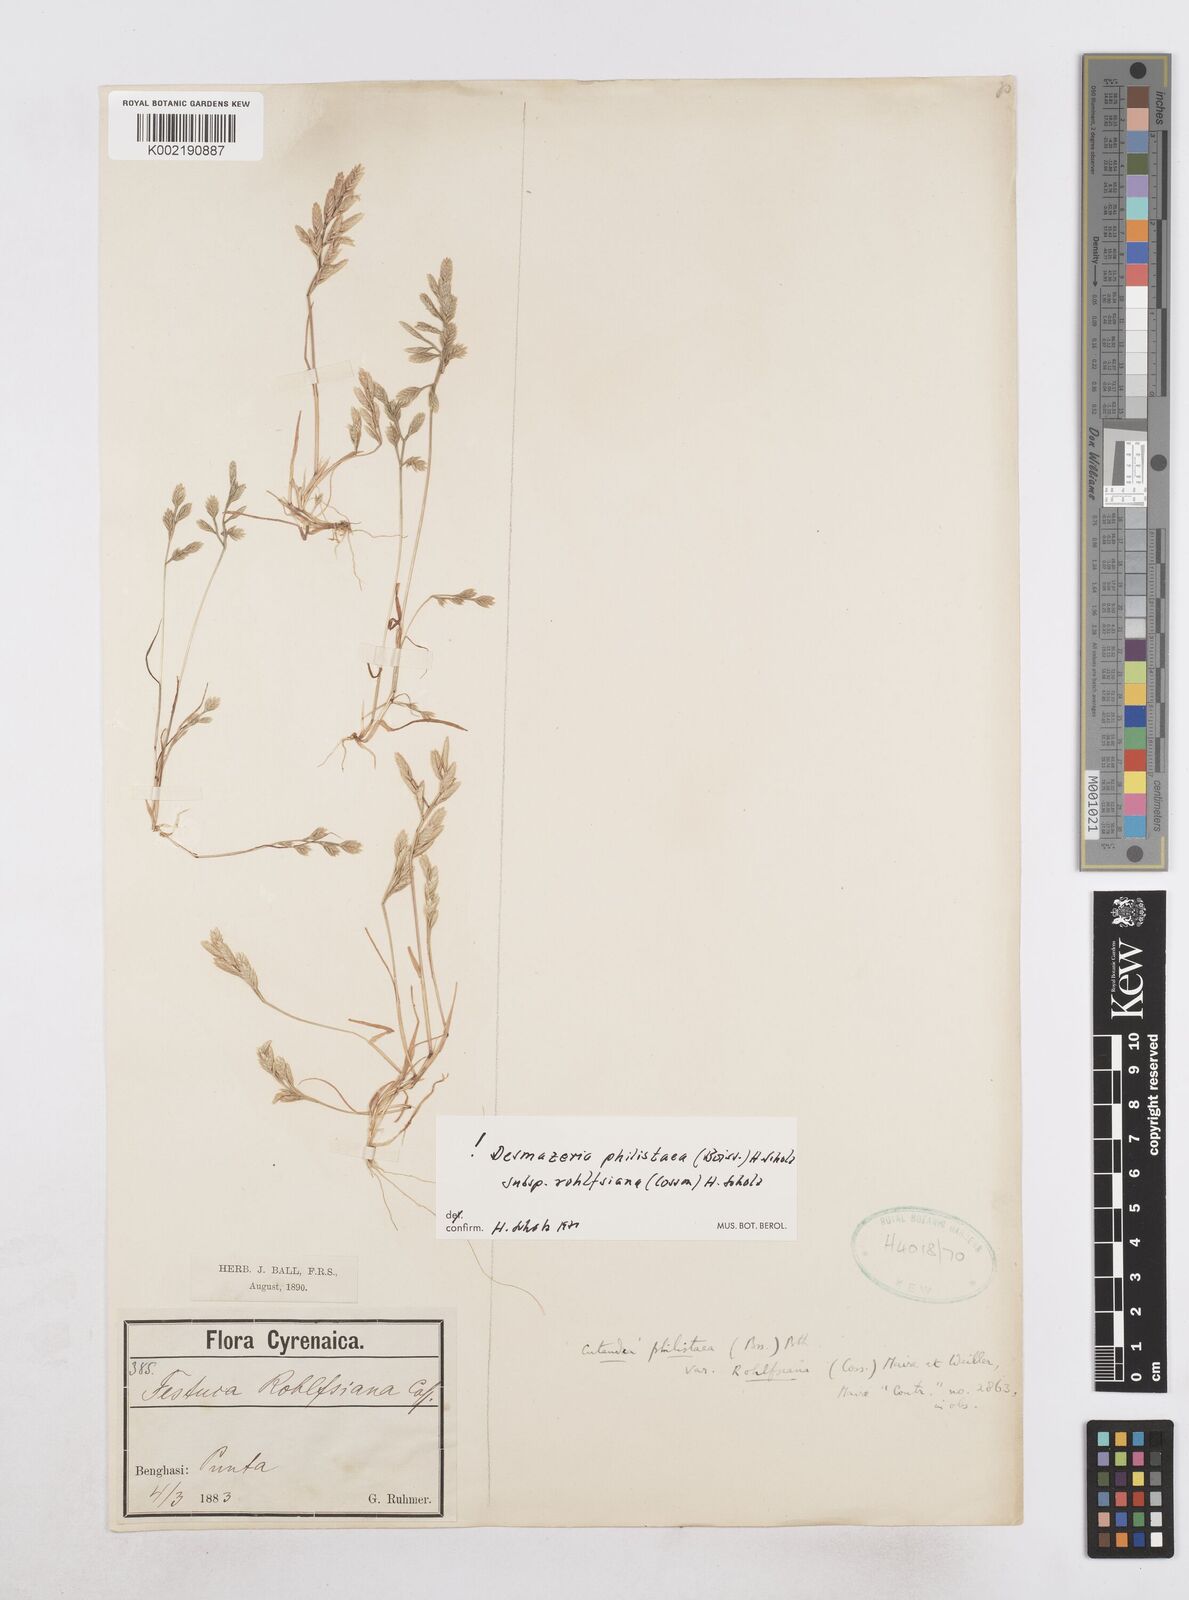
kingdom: Plantae
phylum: Tracheophyta
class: Liliopsida
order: Poales
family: Poaceae
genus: Desmazeria
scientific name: Desmazeria philistaea
